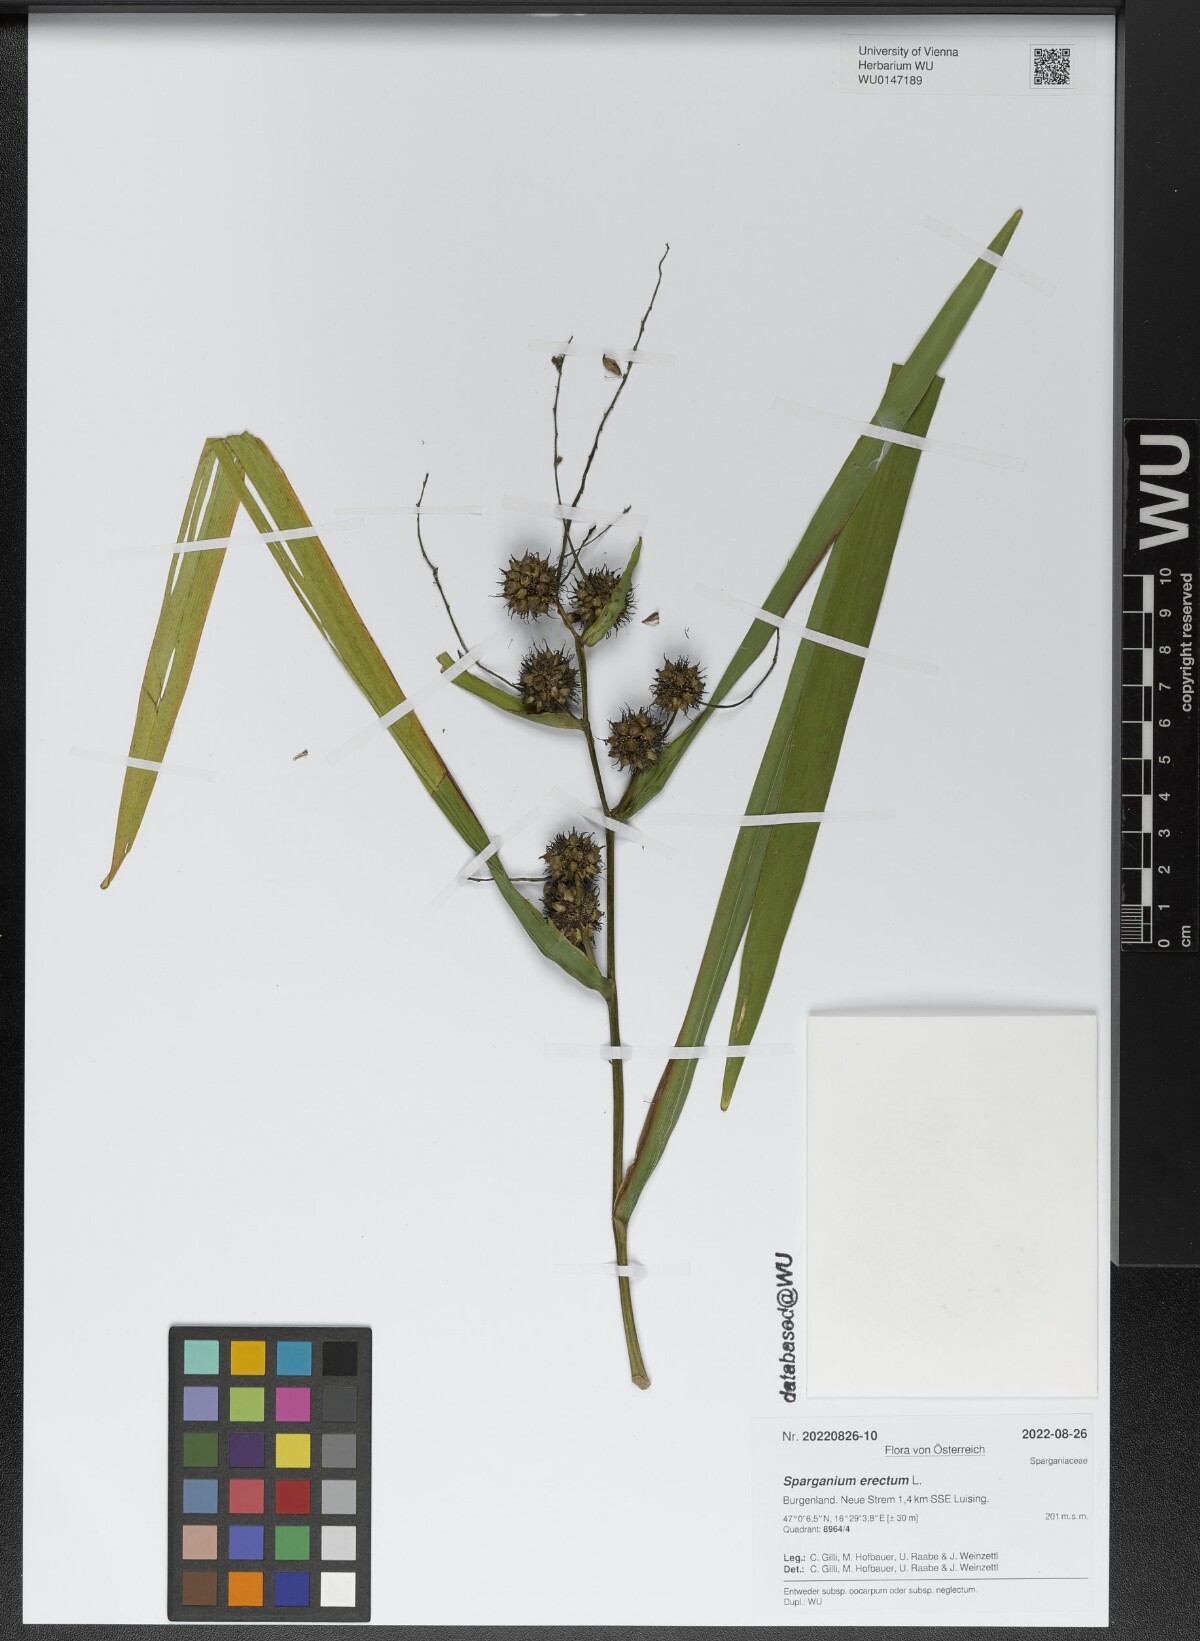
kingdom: Plantae
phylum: Tracheophyta
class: Liliopsida
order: Poales
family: Typhaceae
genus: Sparganium
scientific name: Sparganium erectum
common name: Branched bur-reed
